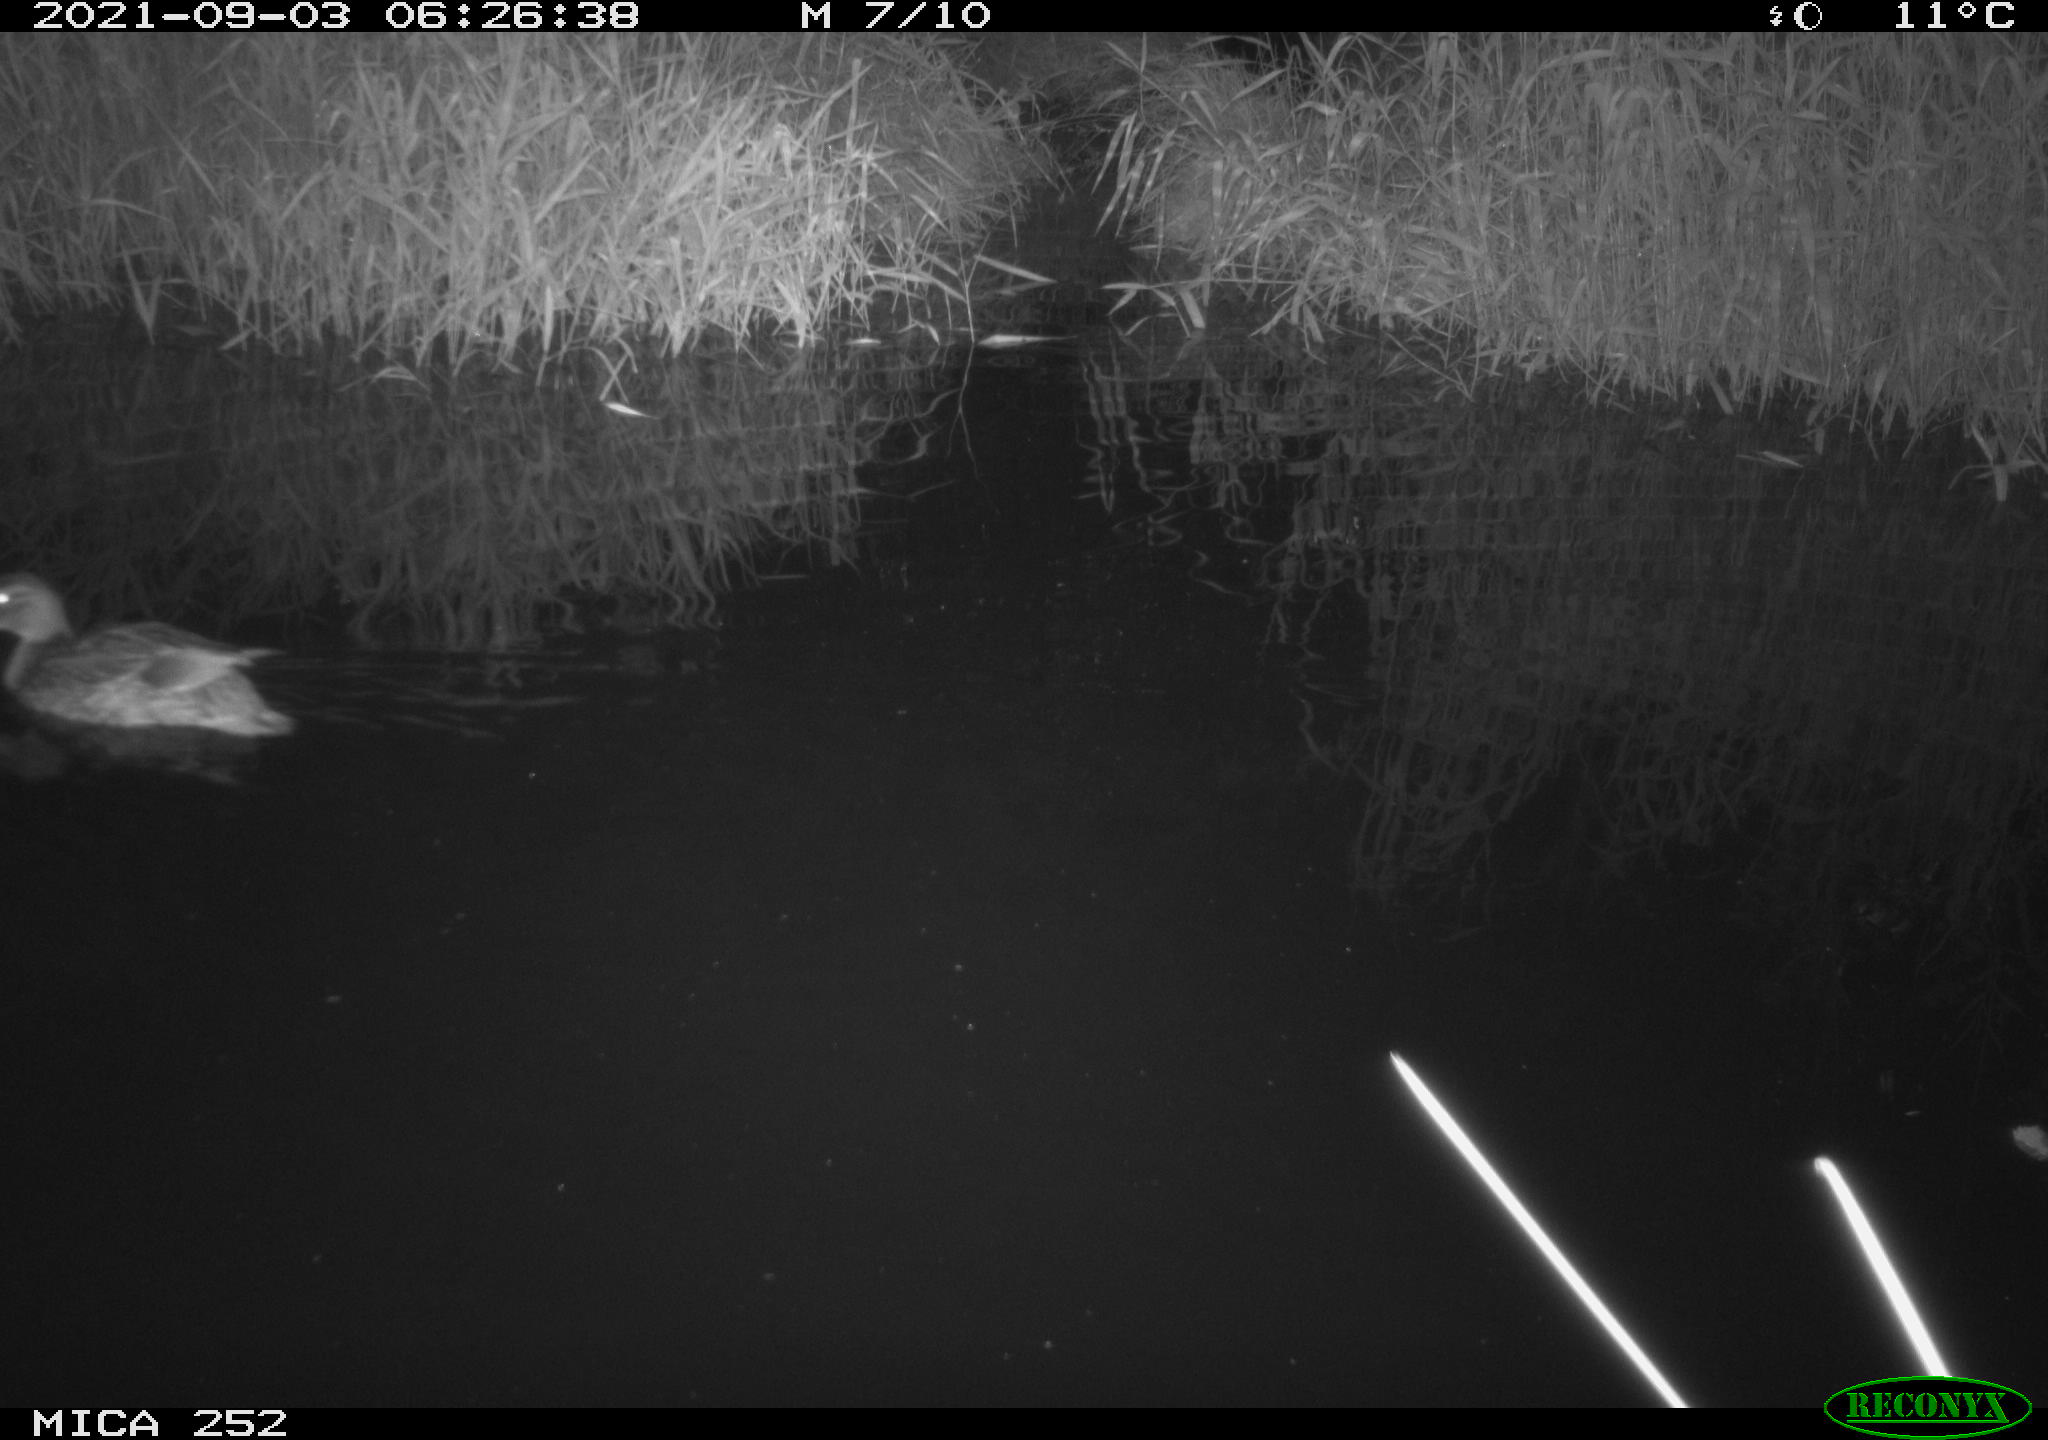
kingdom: Animalia
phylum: Chordata
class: Aves
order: Anseriformes
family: Anatidae
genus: Anas
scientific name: Anas
